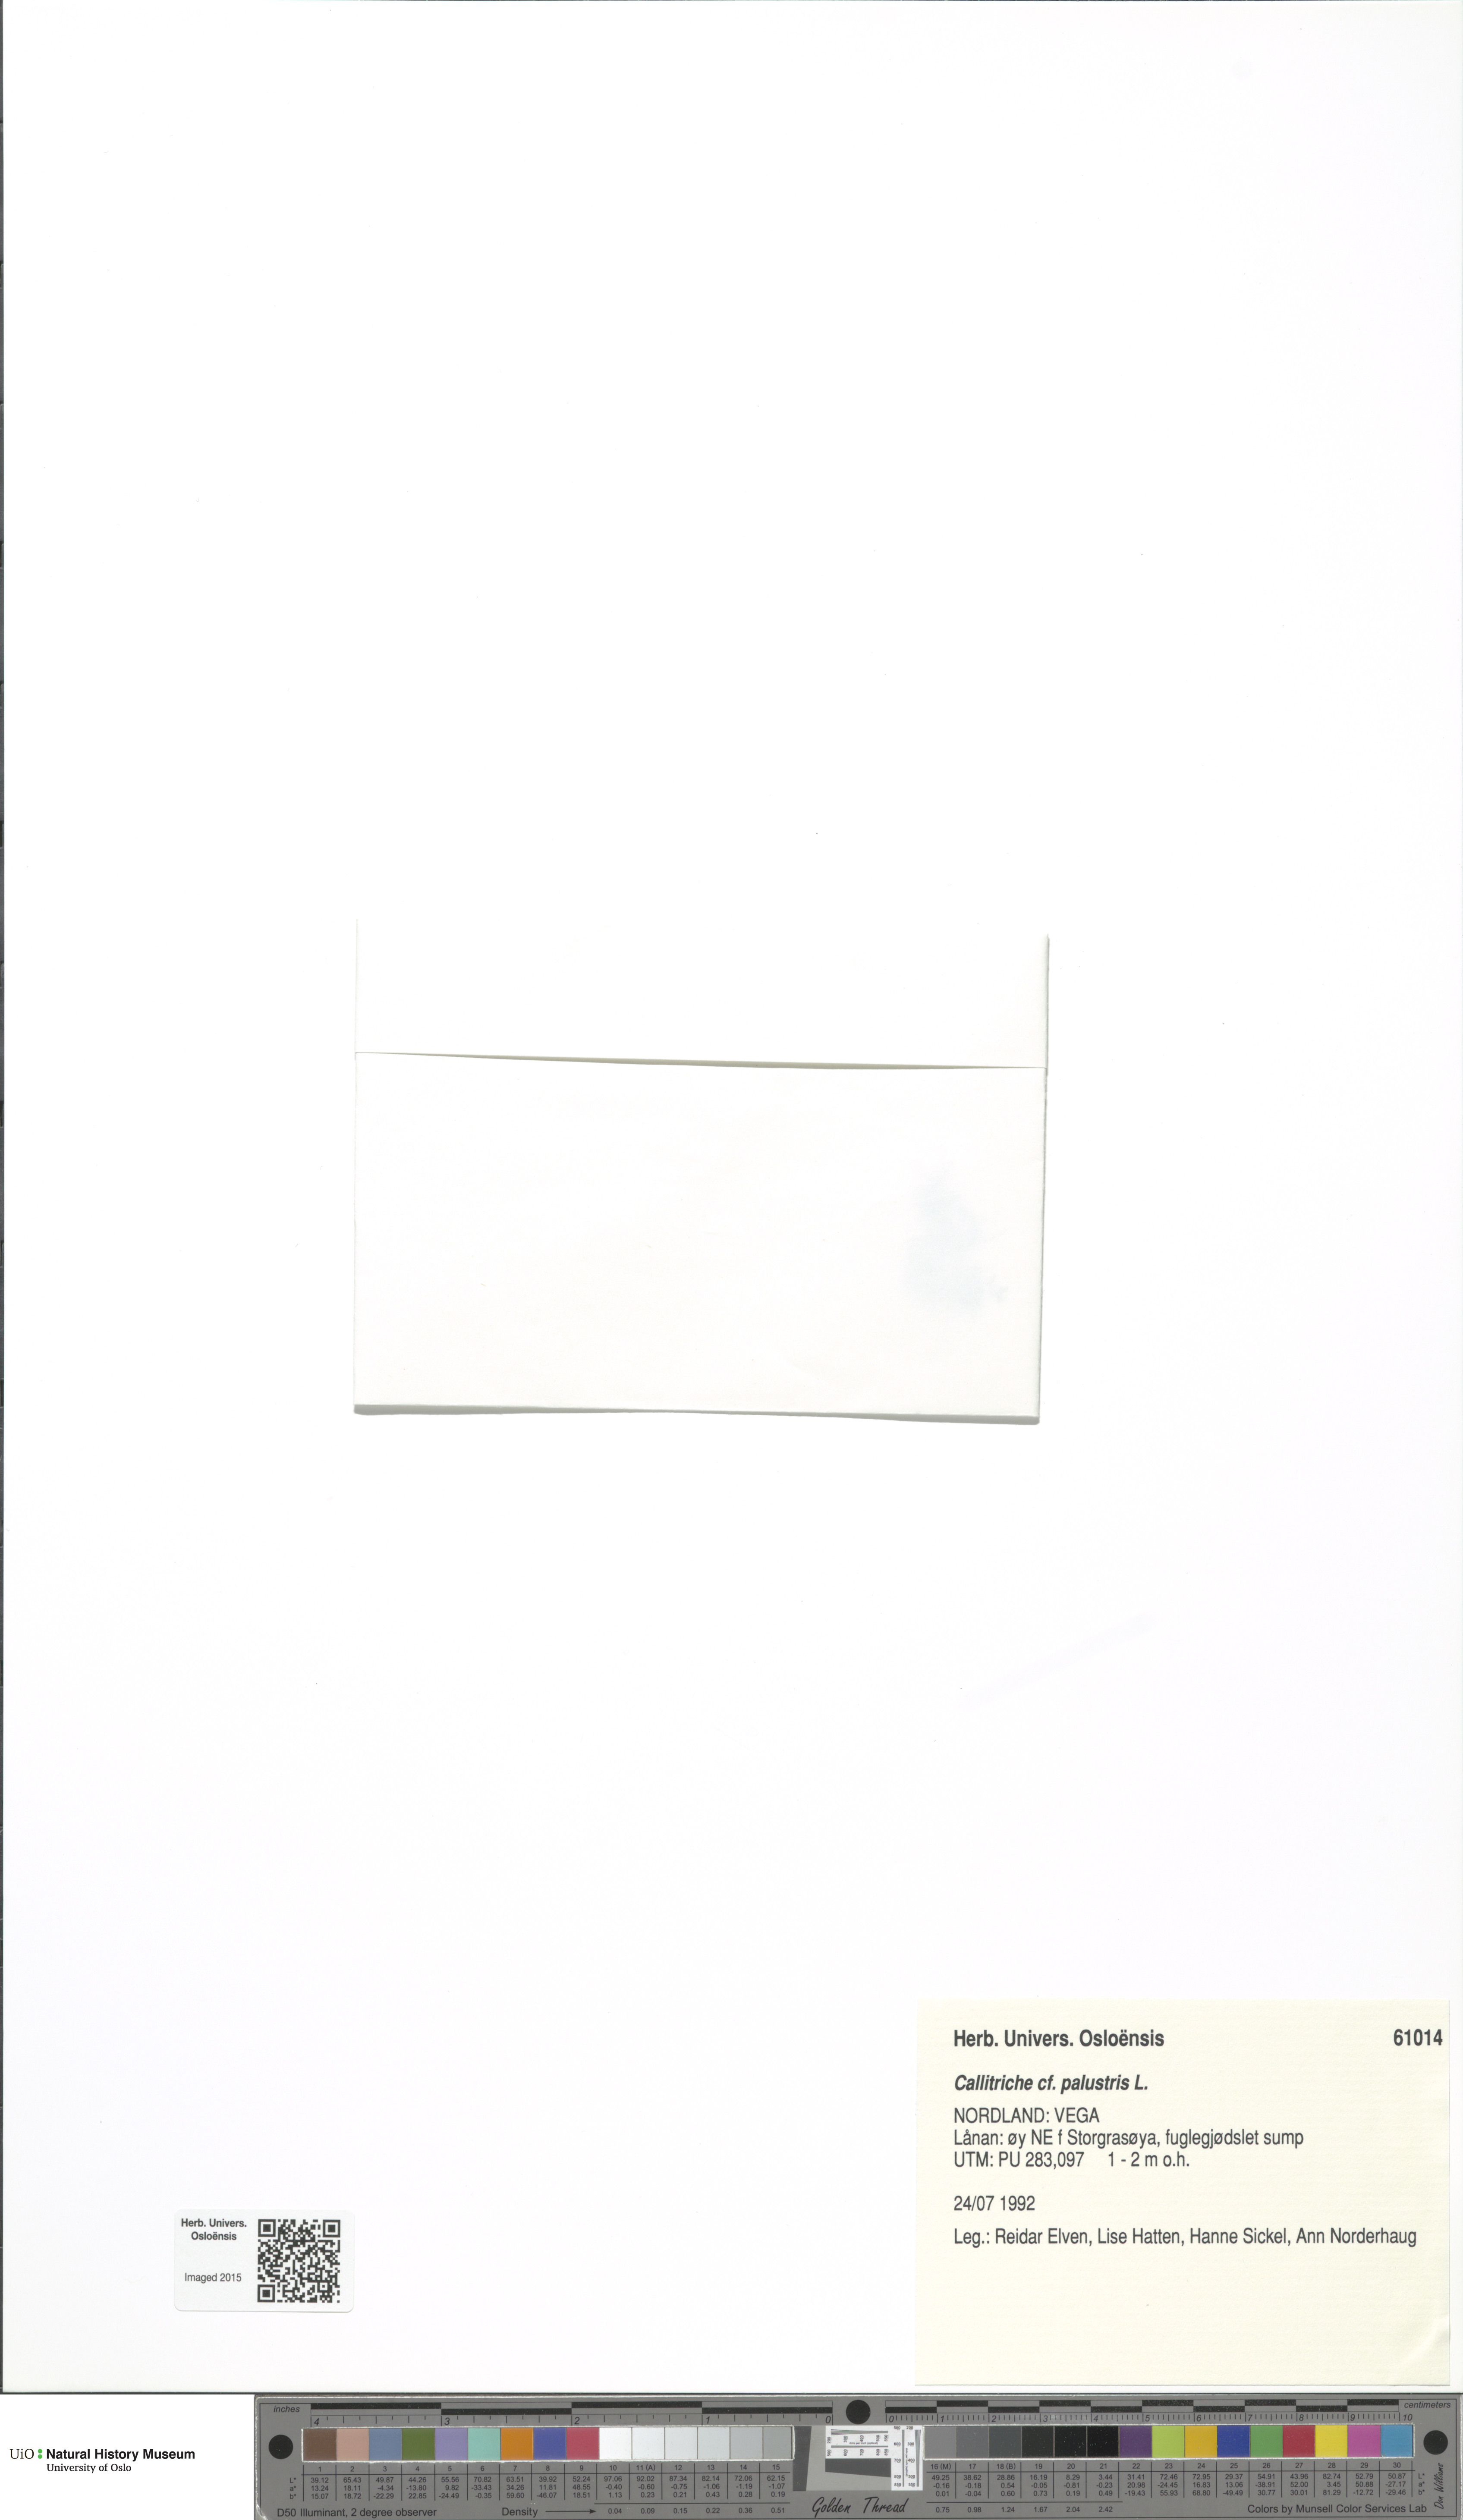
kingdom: Plantae
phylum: Tracheophyta
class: Magnoliopsida
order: Lamiales
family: Plantaginaceae
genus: Callitriche
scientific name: Callitriche palustris
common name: Spring water-starwort
